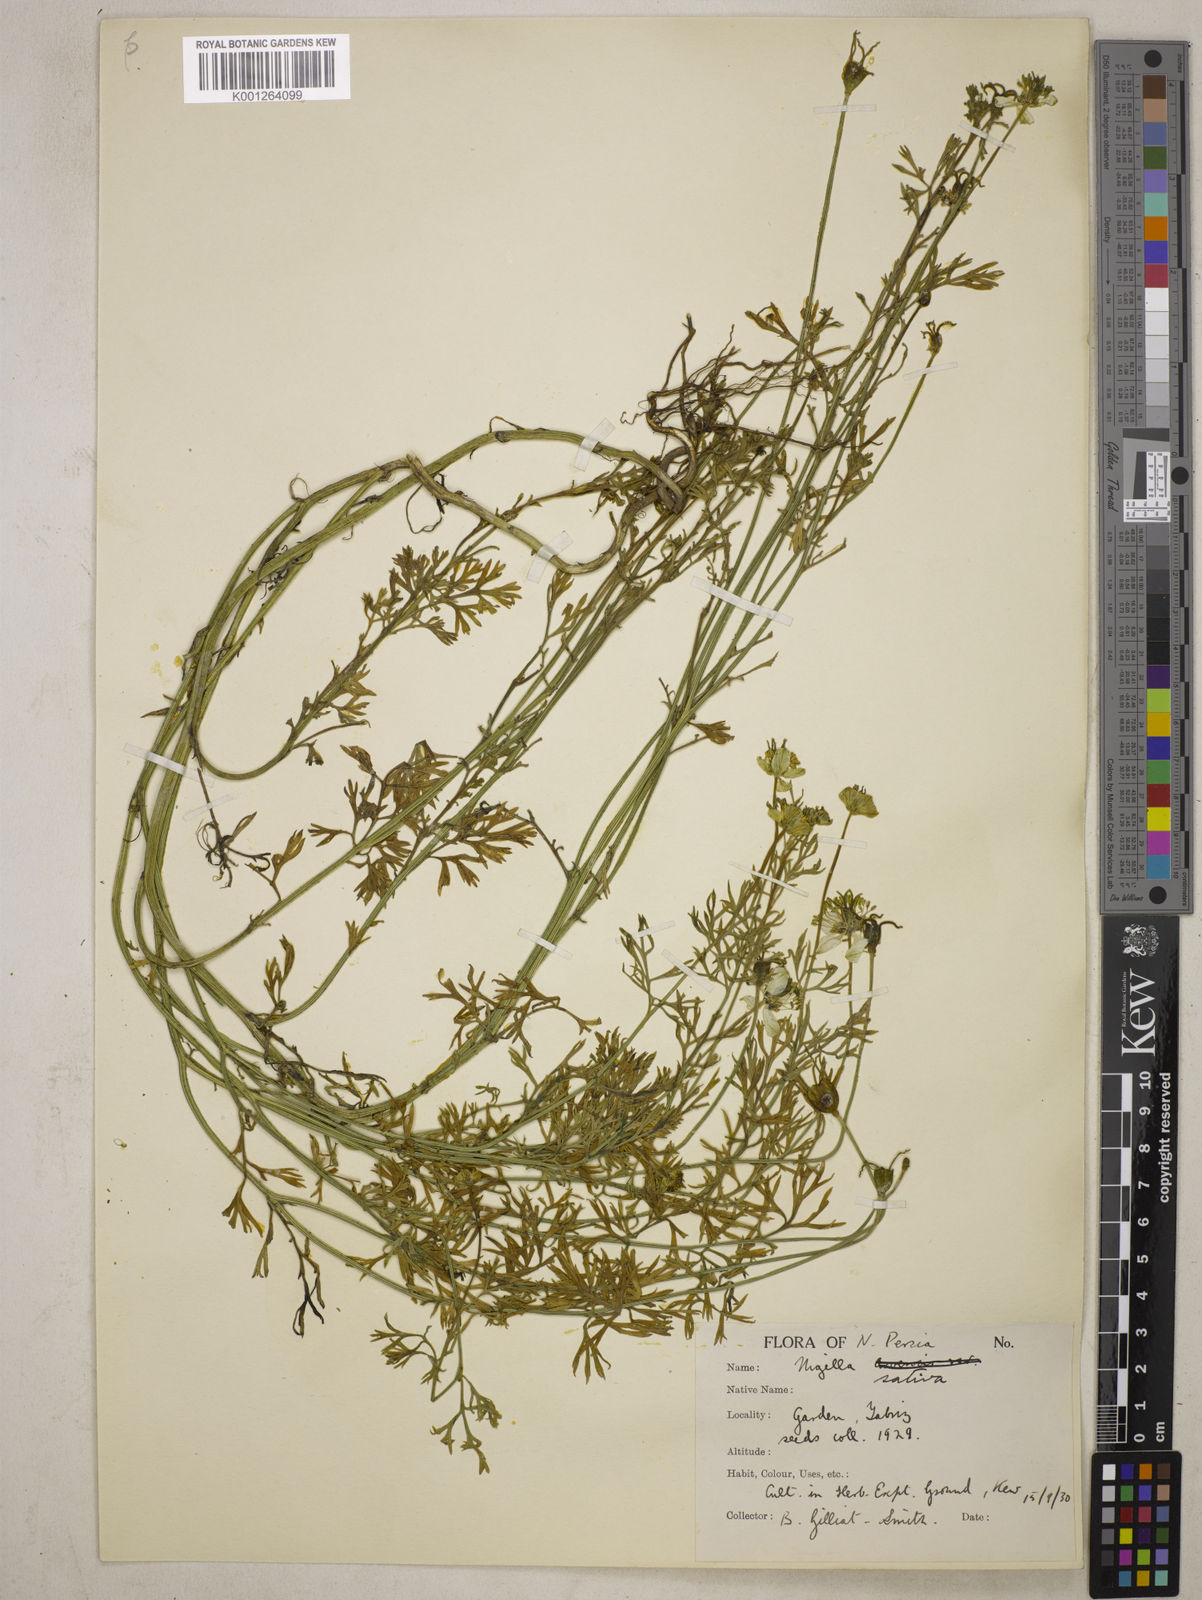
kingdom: Plantae
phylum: Tracheophyta
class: Magnoliopsida
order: Ranunculales
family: Ranunculaceae
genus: Nigella
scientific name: Nigella sativa
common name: Black-cumin
